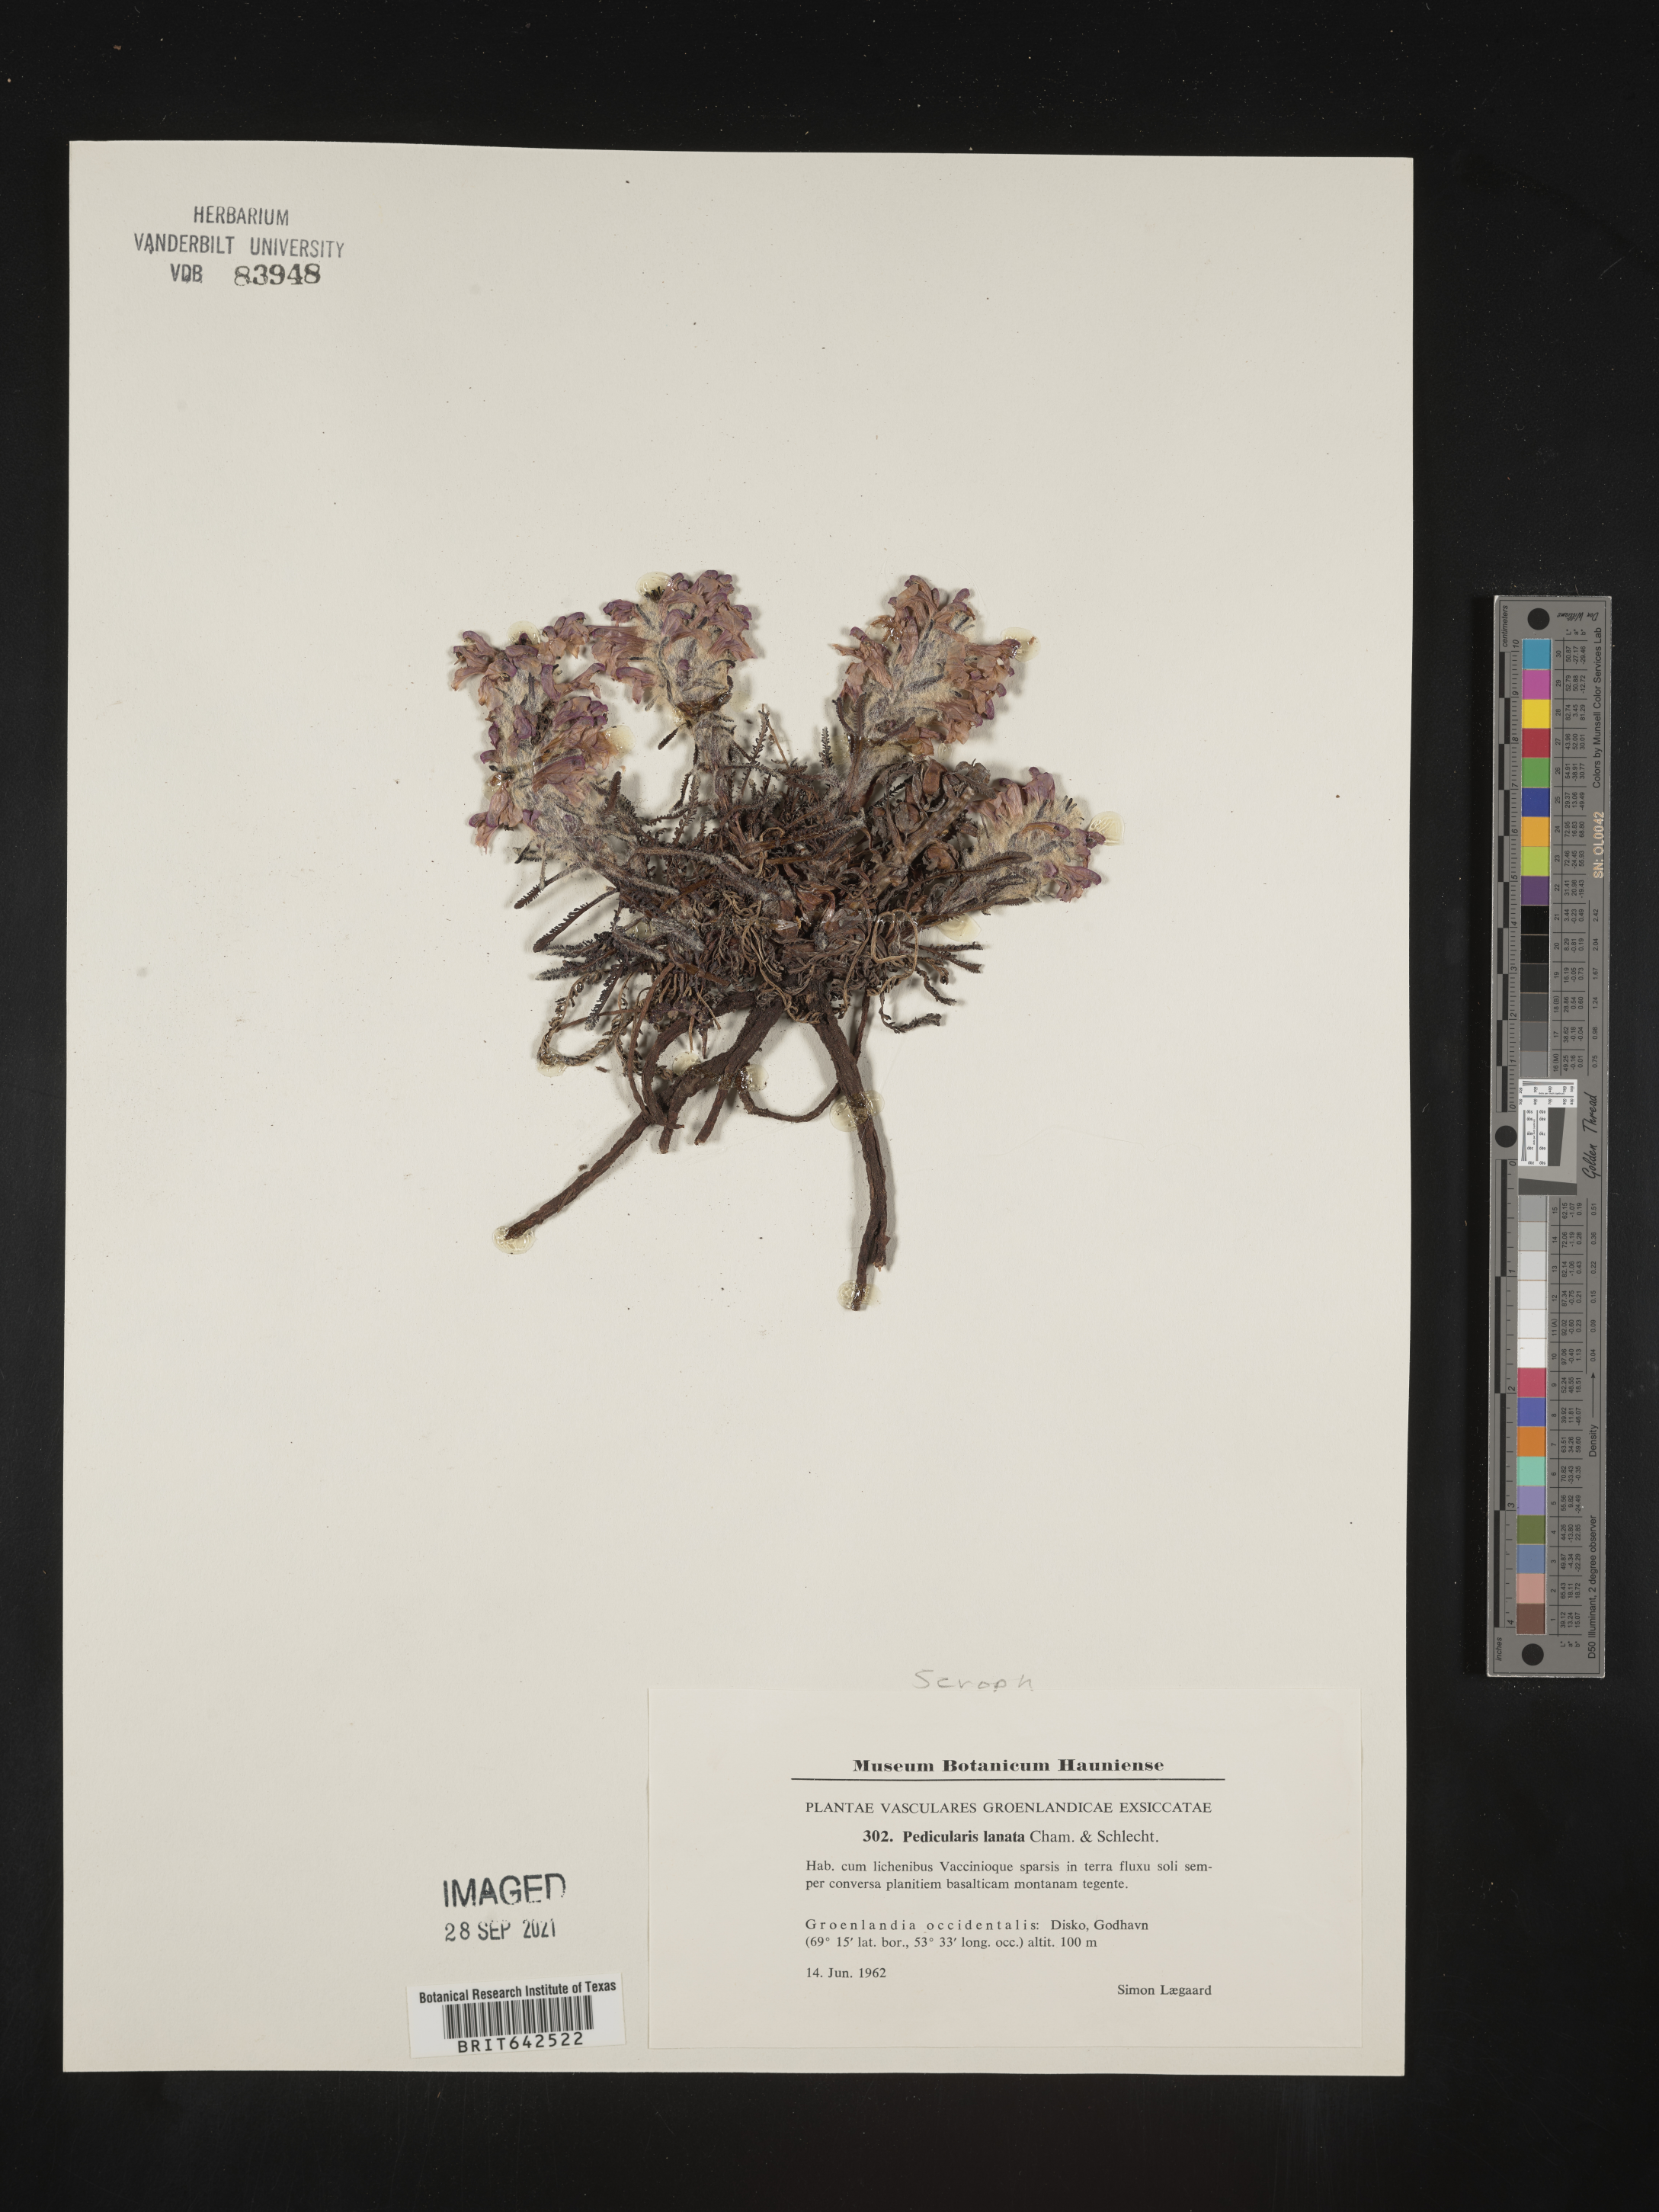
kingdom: Plantae
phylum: Tracheophyta
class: Magnoliopsida
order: Lamiales
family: Orobanchaceae
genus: Pedicularis
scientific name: Pedicularis
